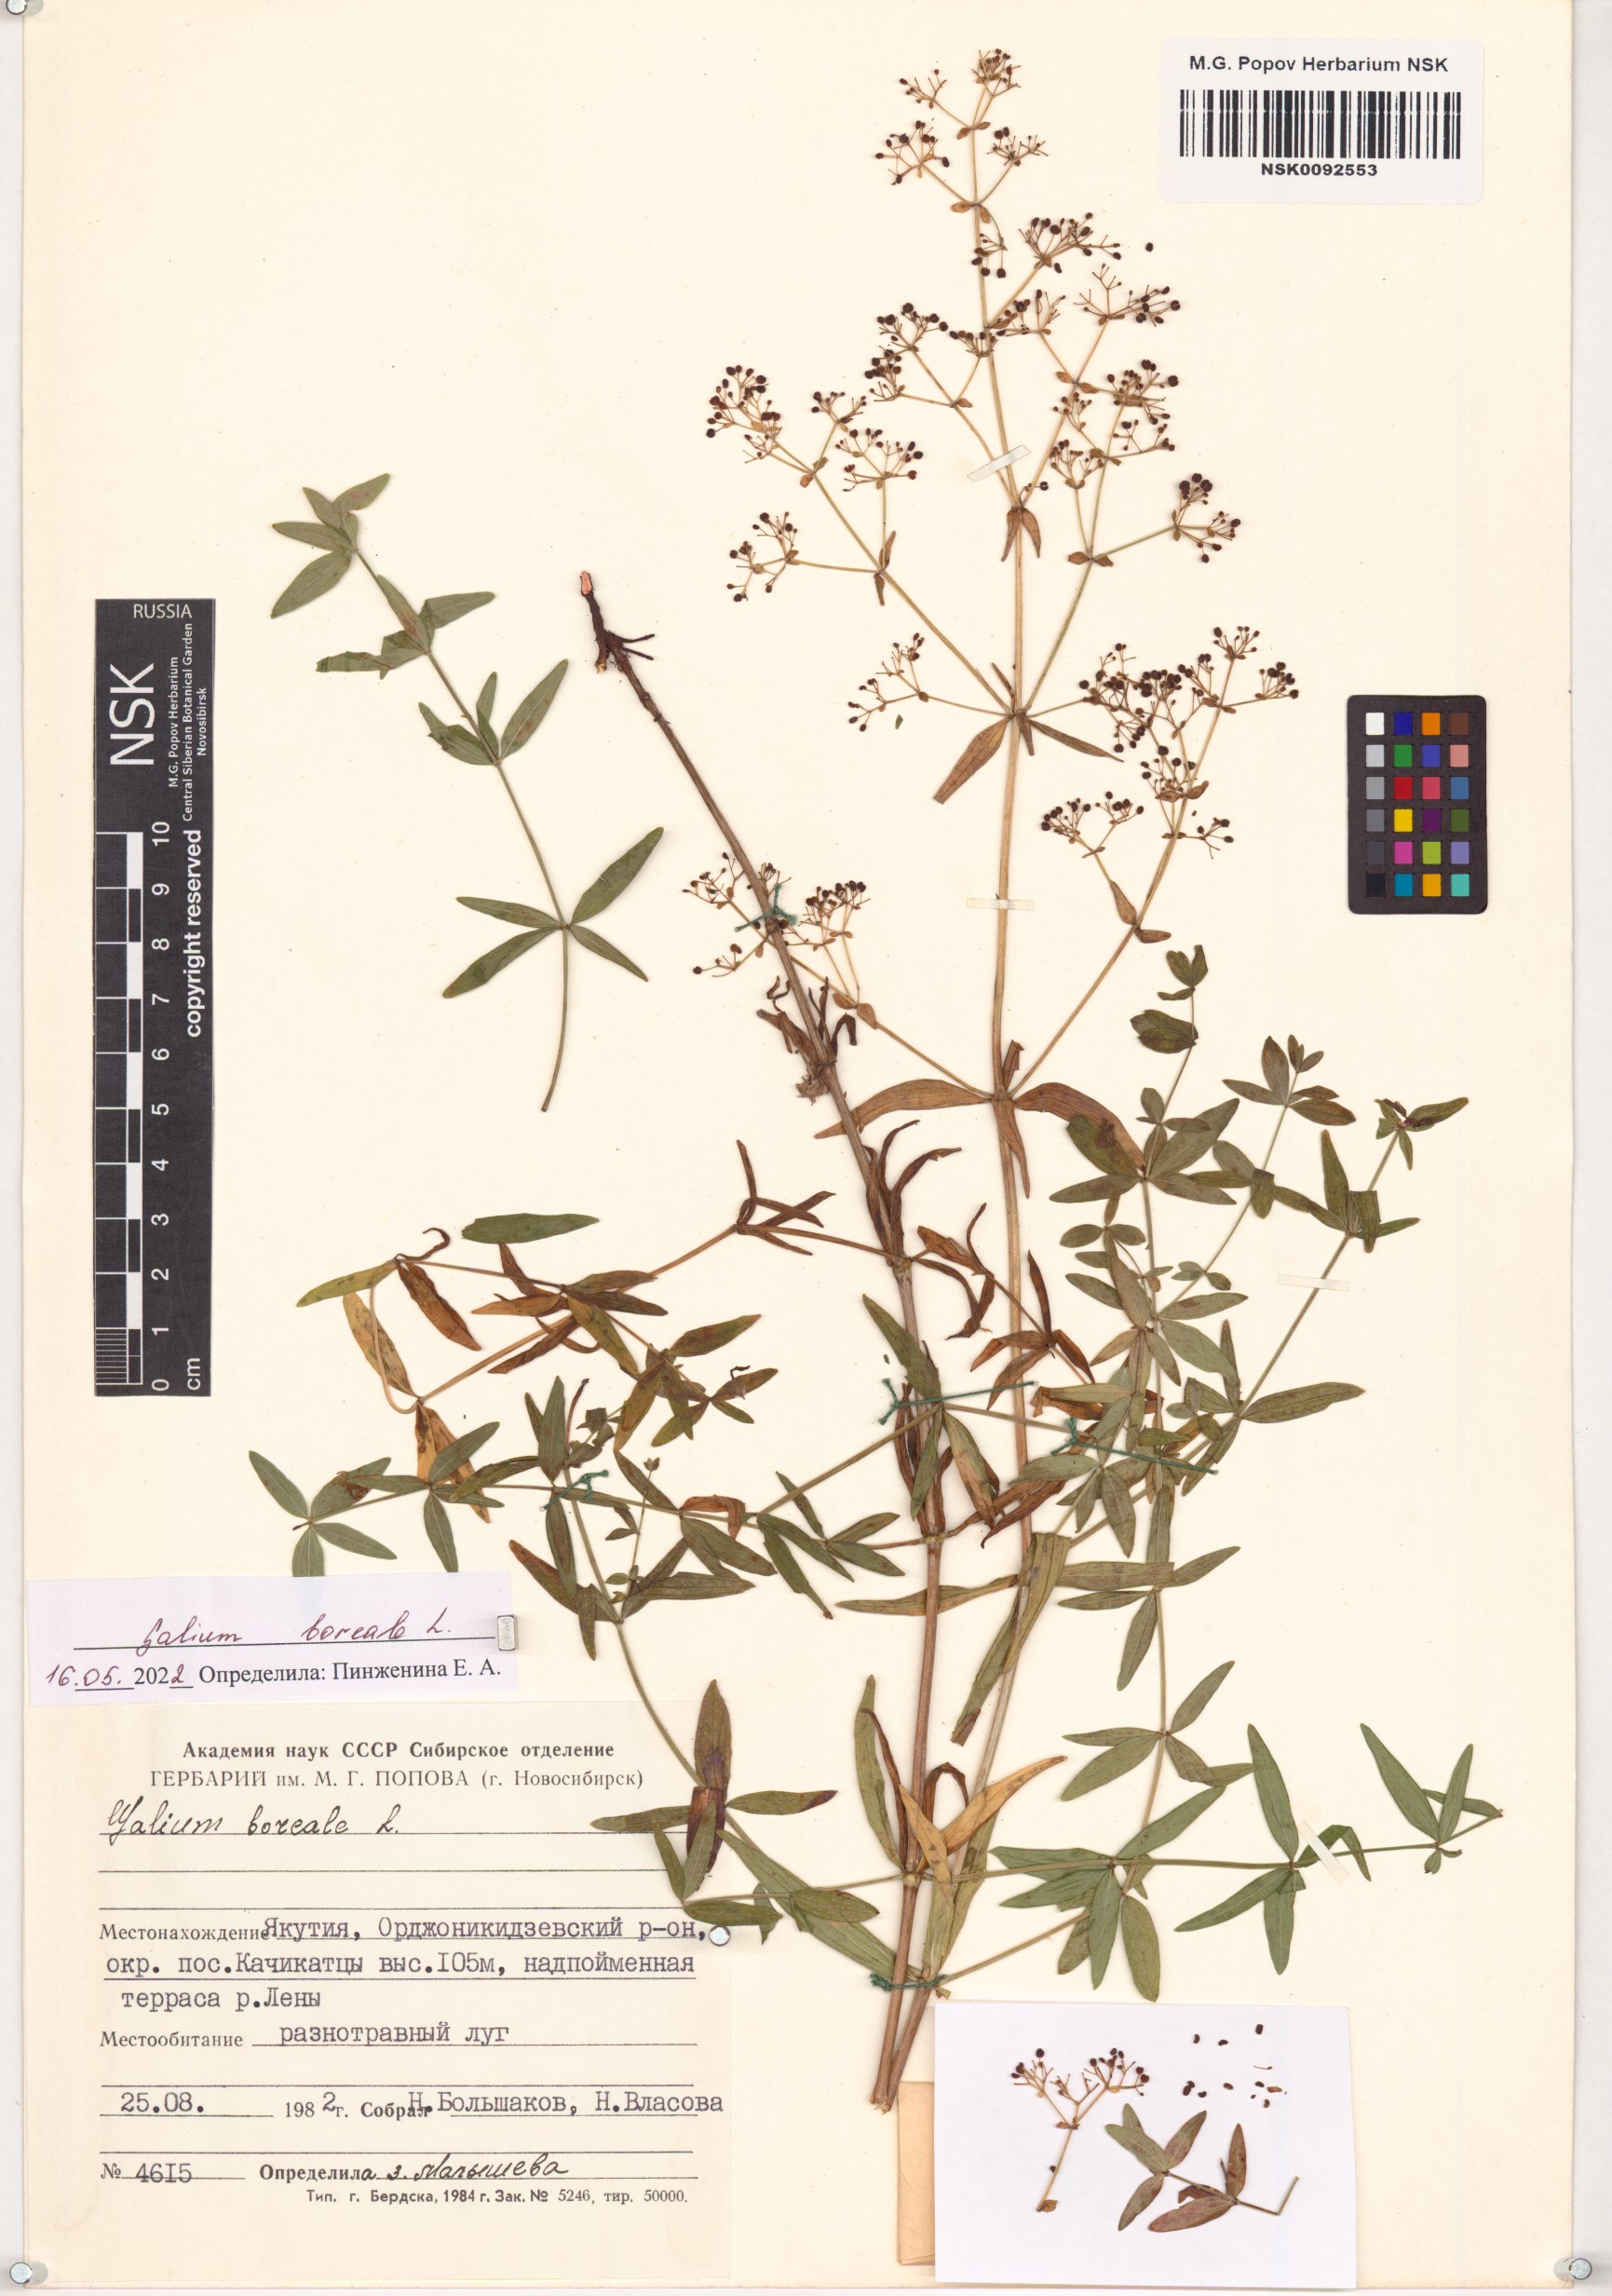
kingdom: Plantae
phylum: Tracheophyta
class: Magnoliopsida
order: Gentianales
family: Rubiaceae
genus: Galium
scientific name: Galium boreale
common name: Northern bedstraw
